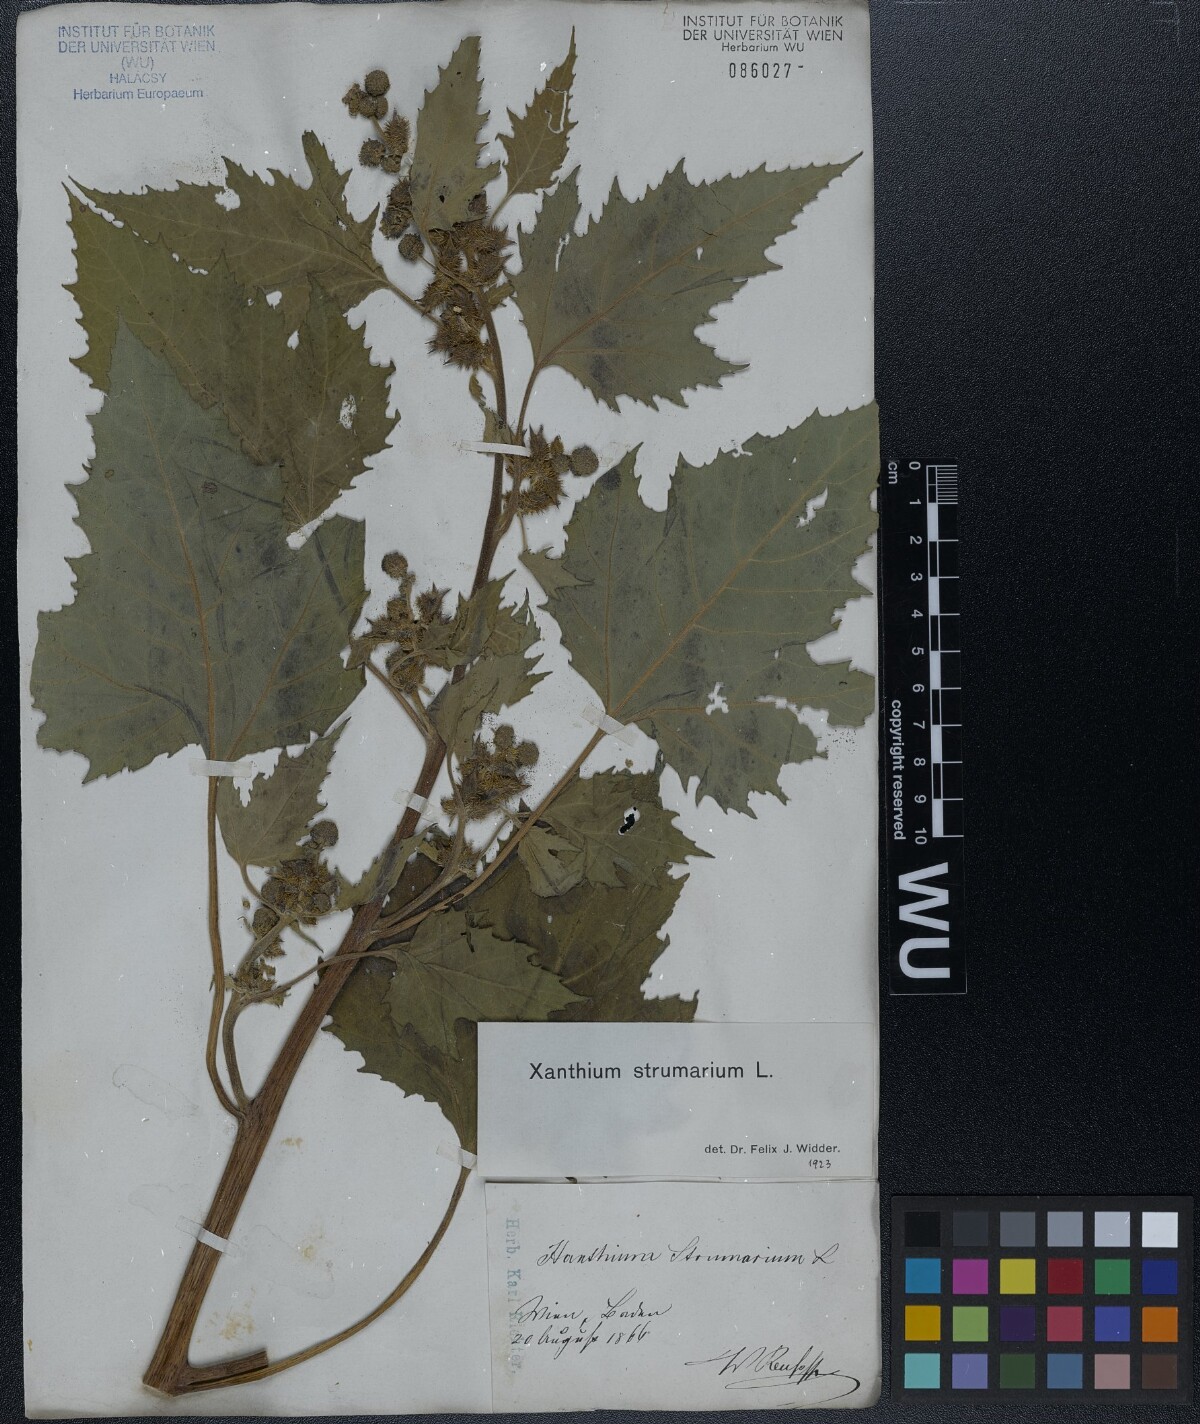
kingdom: Plantae
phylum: Tracheophyta
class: Magnoliopsida
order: Asterales
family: Asteraceae
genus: Xanthium
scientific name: Xanthium strumarium
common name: Rough cocklebur
